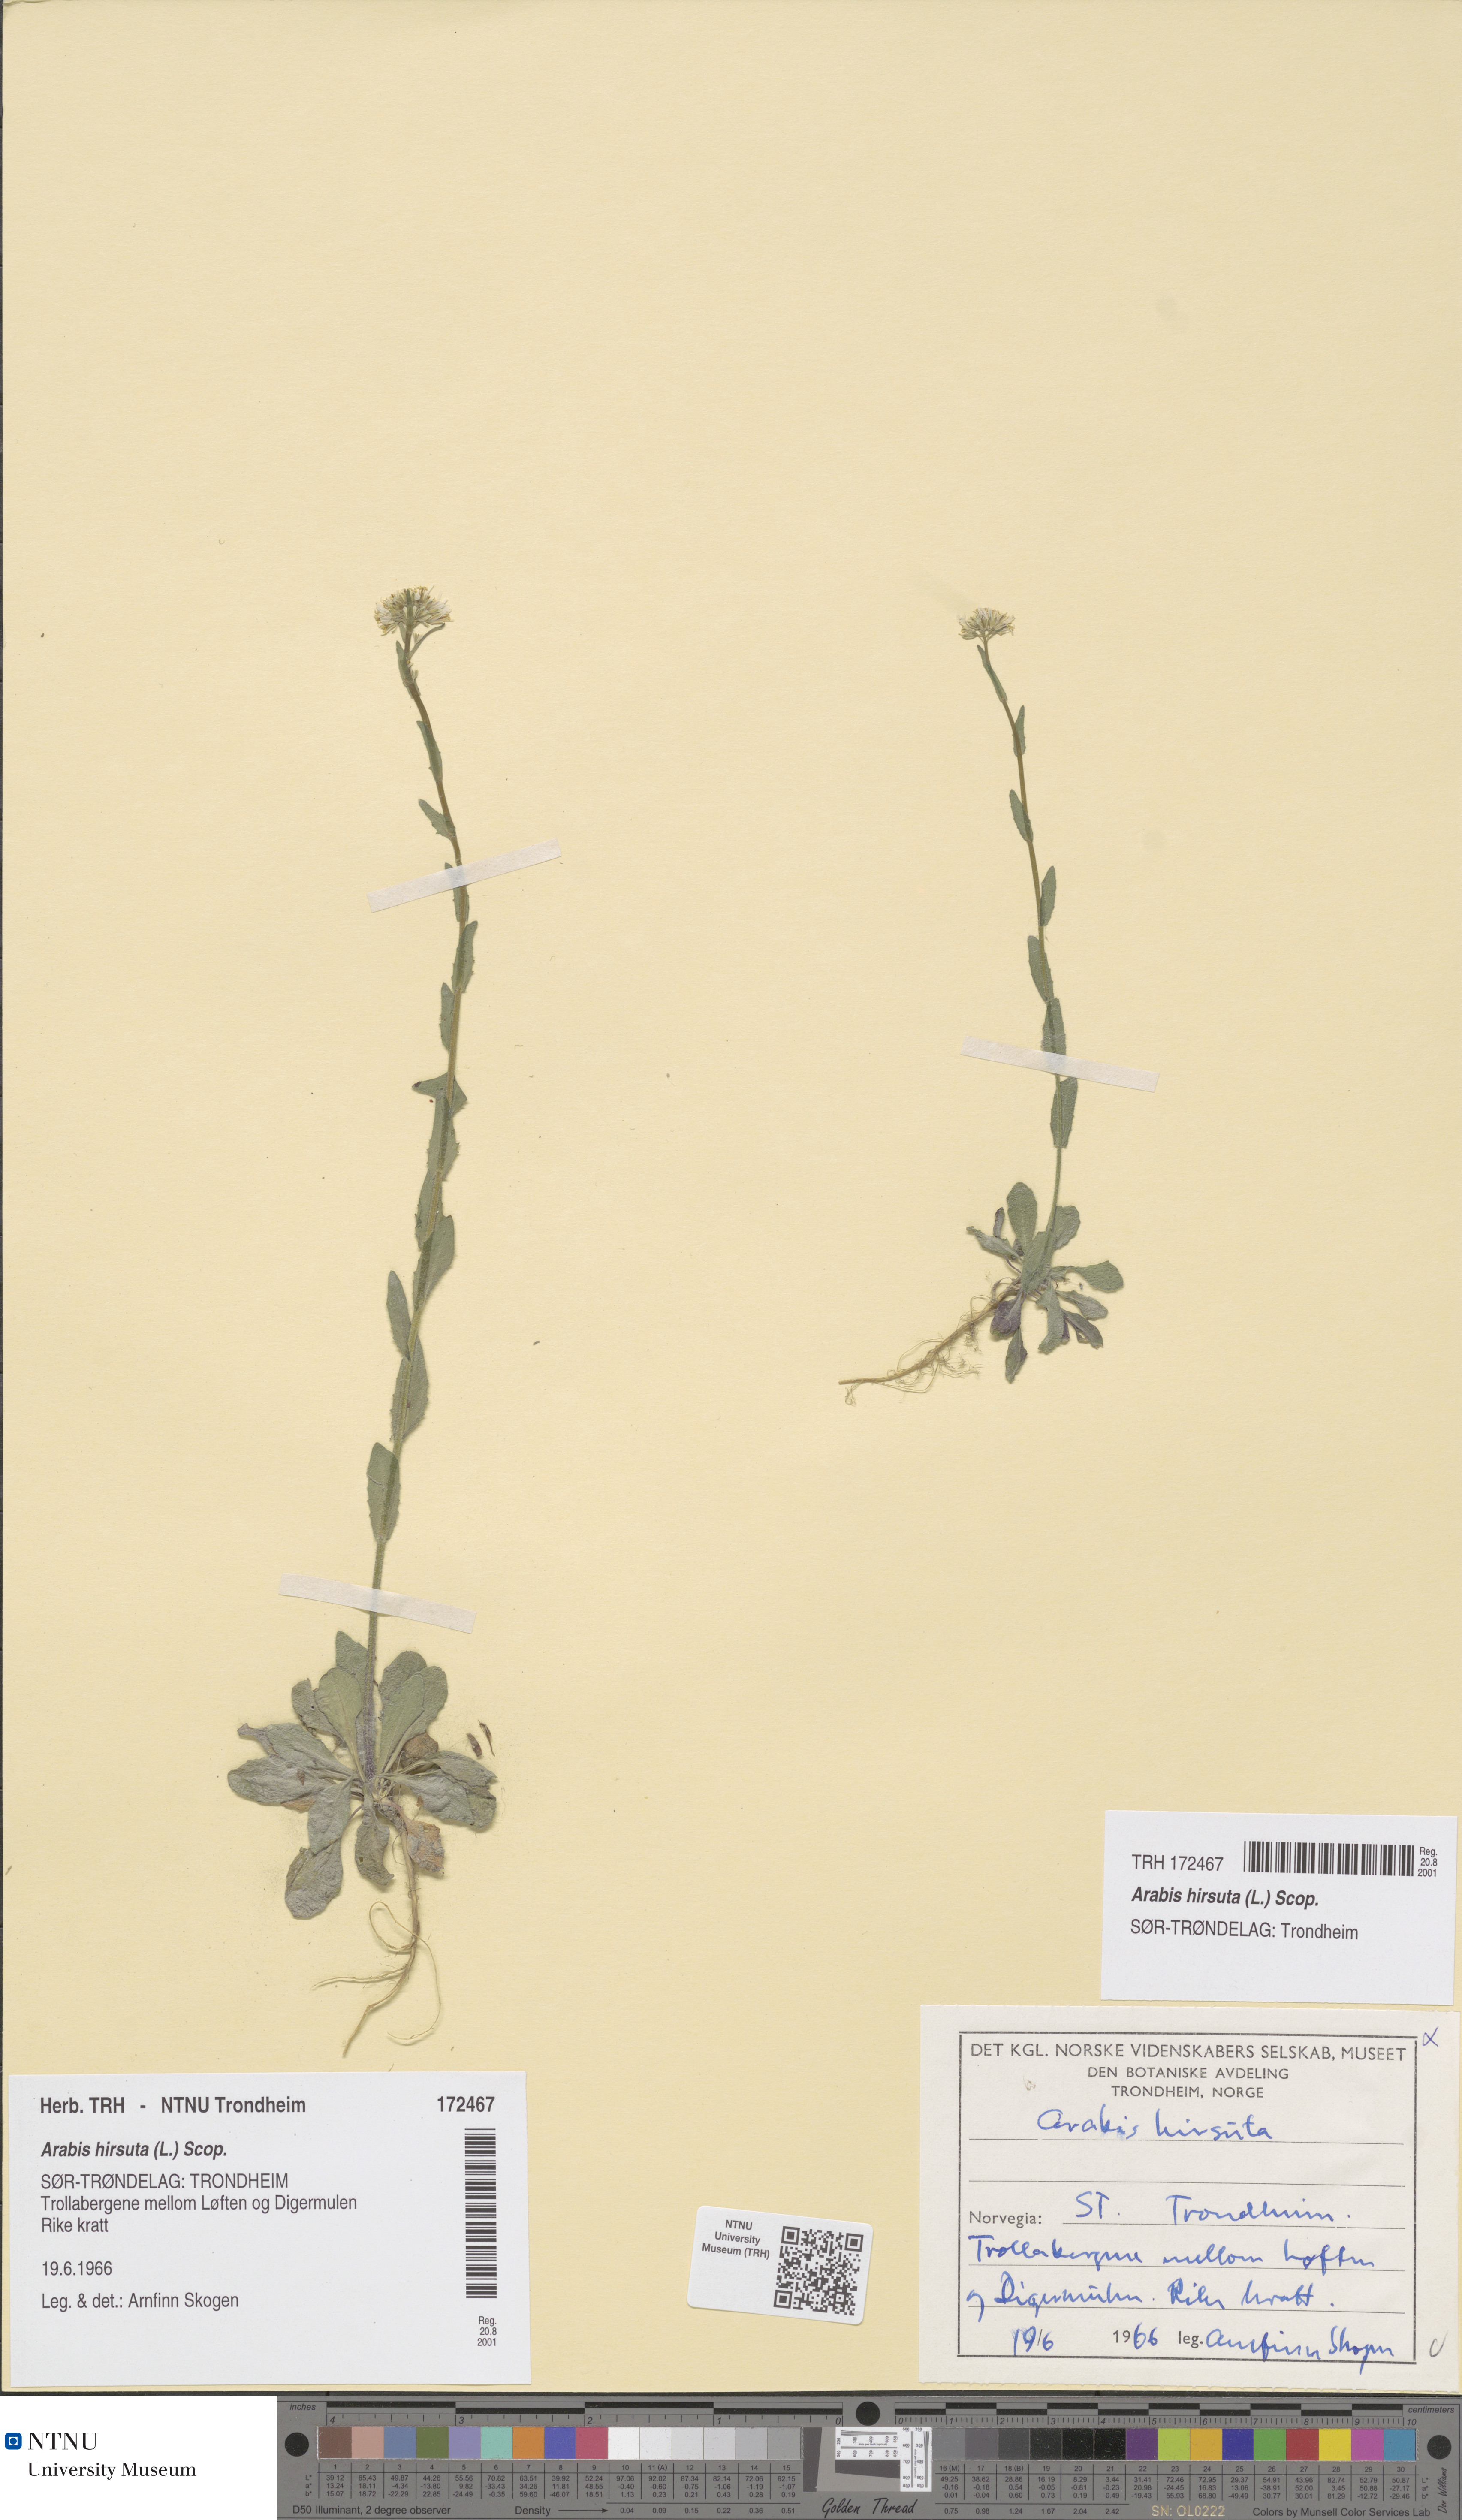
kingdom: Plantae
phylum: Tracheophyta
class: Magnoliopsida
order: Brassicales
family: Brassicaceae
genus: Arabis
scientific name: Arabis hirsuta
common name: Hairy rock-cress
